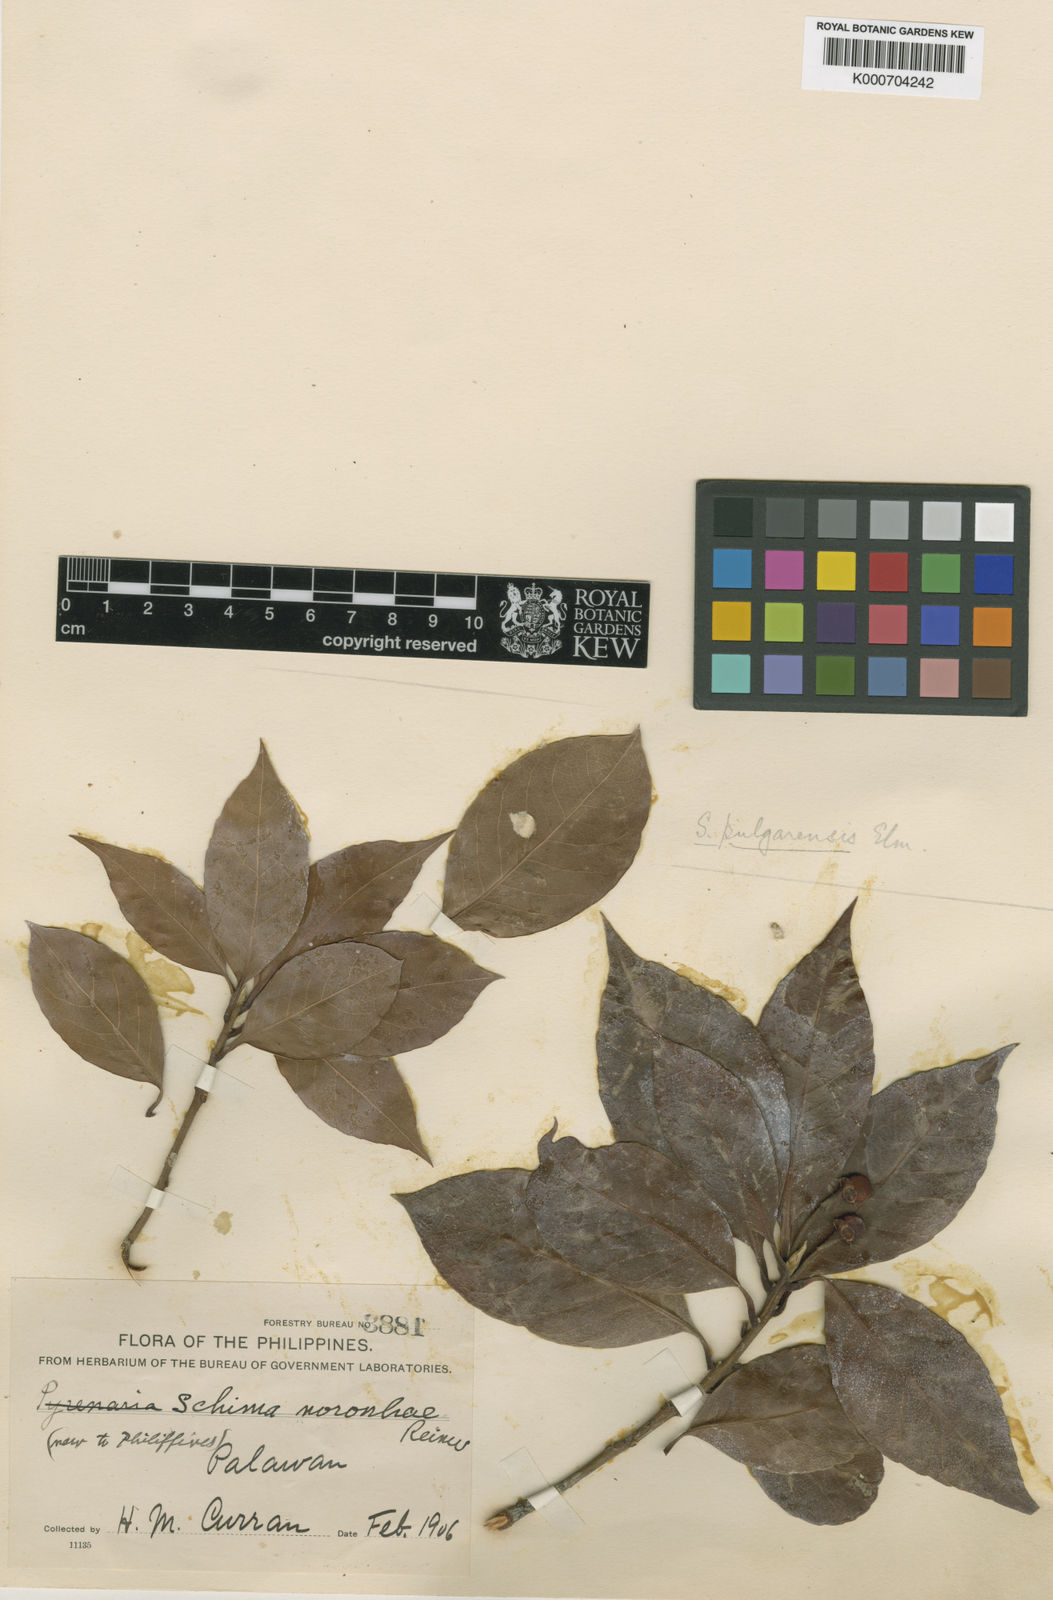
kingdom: Plantae
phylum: Tracheophyta
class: Magnoliopsida
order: Ericales
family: Theaceae
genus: Schima
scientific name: Schima wallichii
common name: Schima
